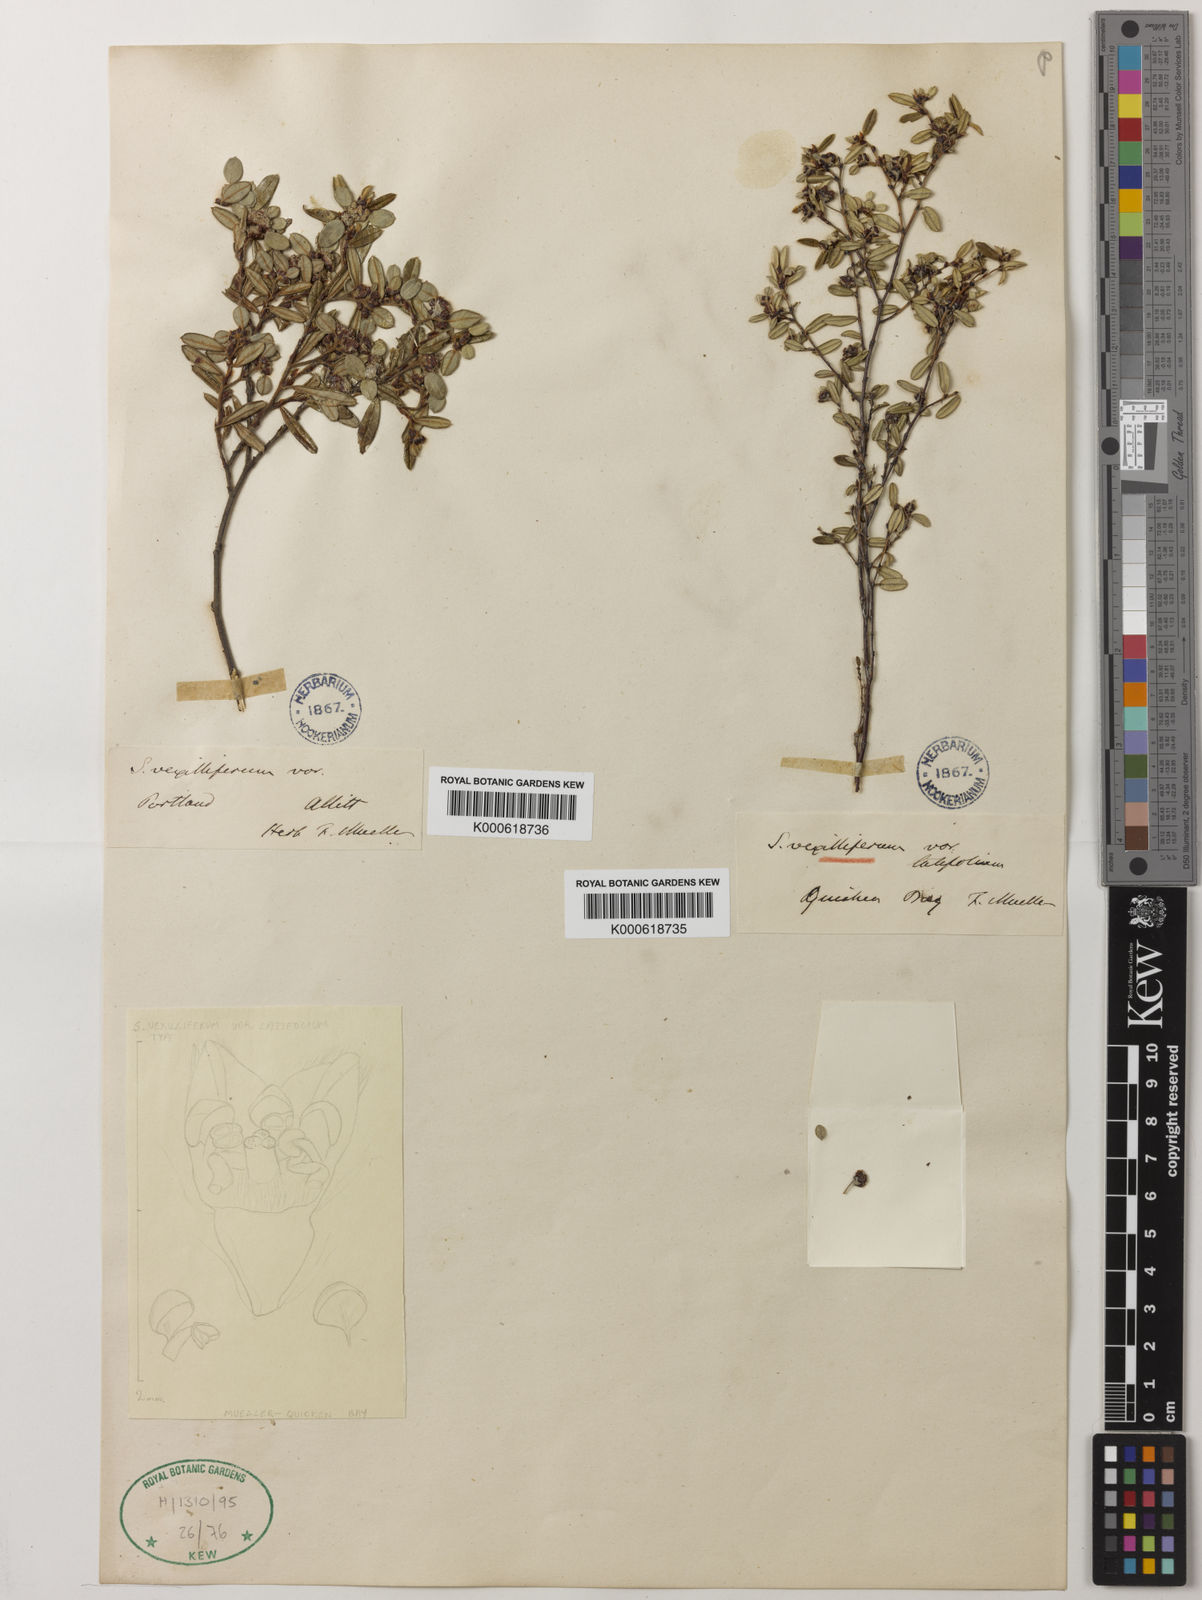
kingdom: Plantae
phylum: Tracheophyta
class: Magnoliopsida
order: Rosales
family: Rhamnaceae
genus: Spyridium
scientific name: Spyridium
